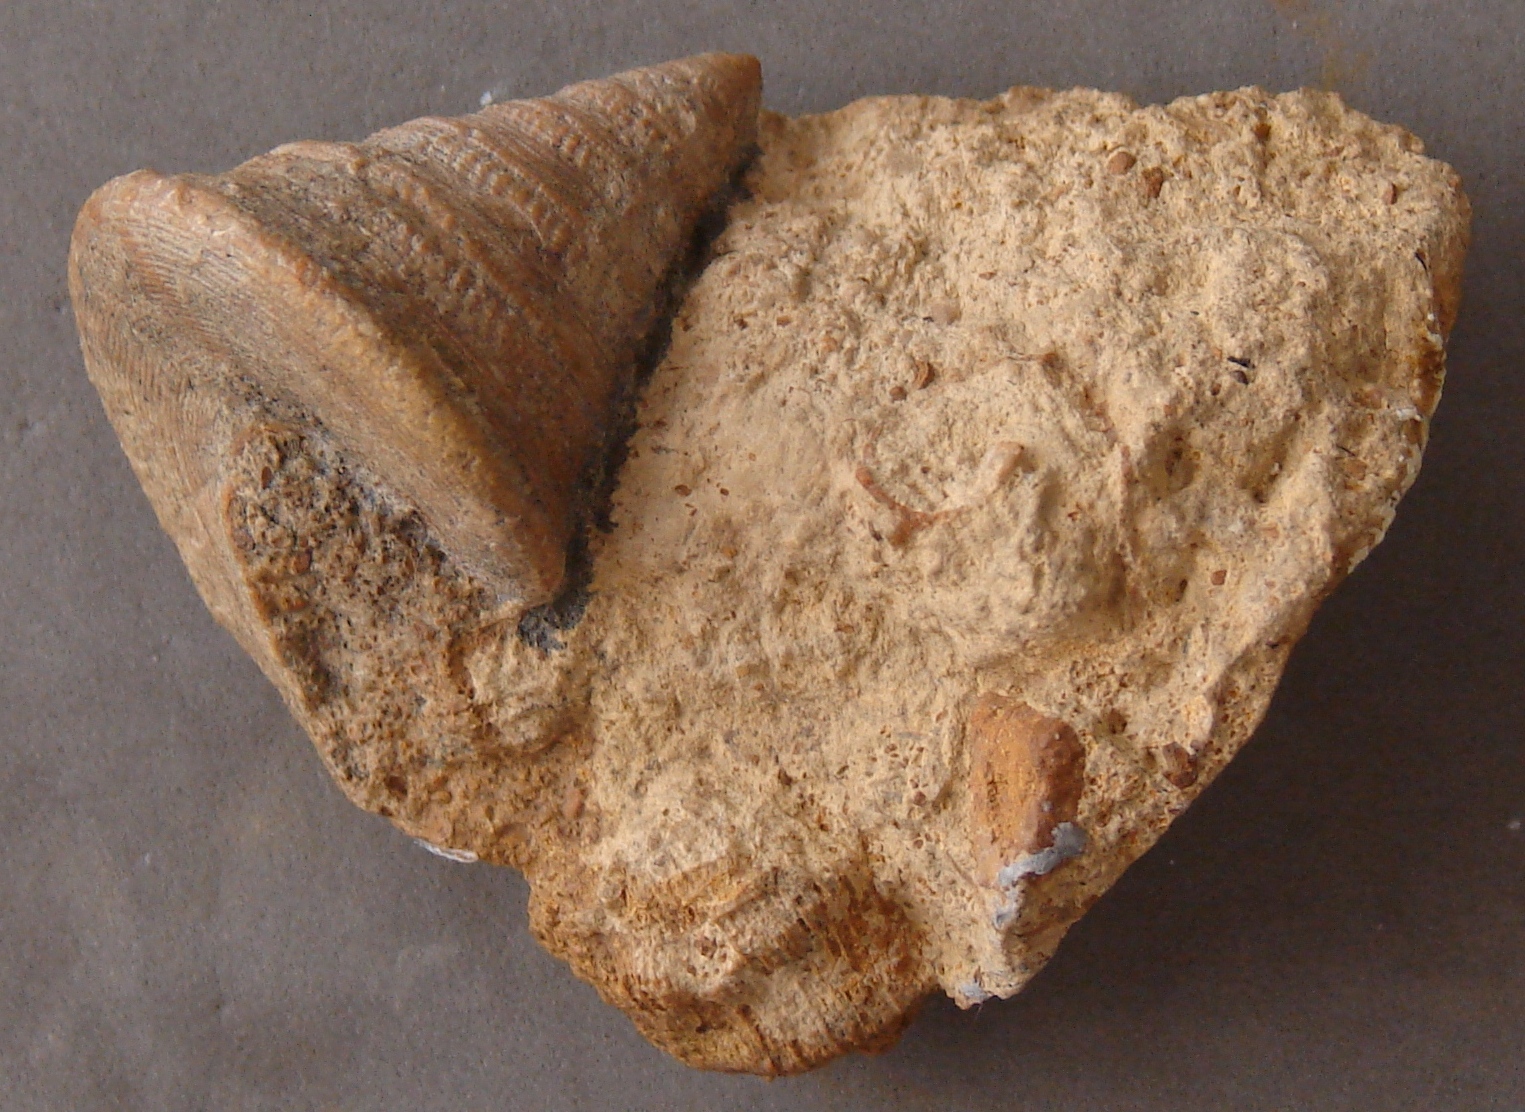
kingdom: Animalia
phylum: Mollusca
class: Gastropoda
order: Pleurotomariida
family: Pleurotomariidae
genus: Pyrgotrochus
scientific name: Pyrgotrochus elongatus
